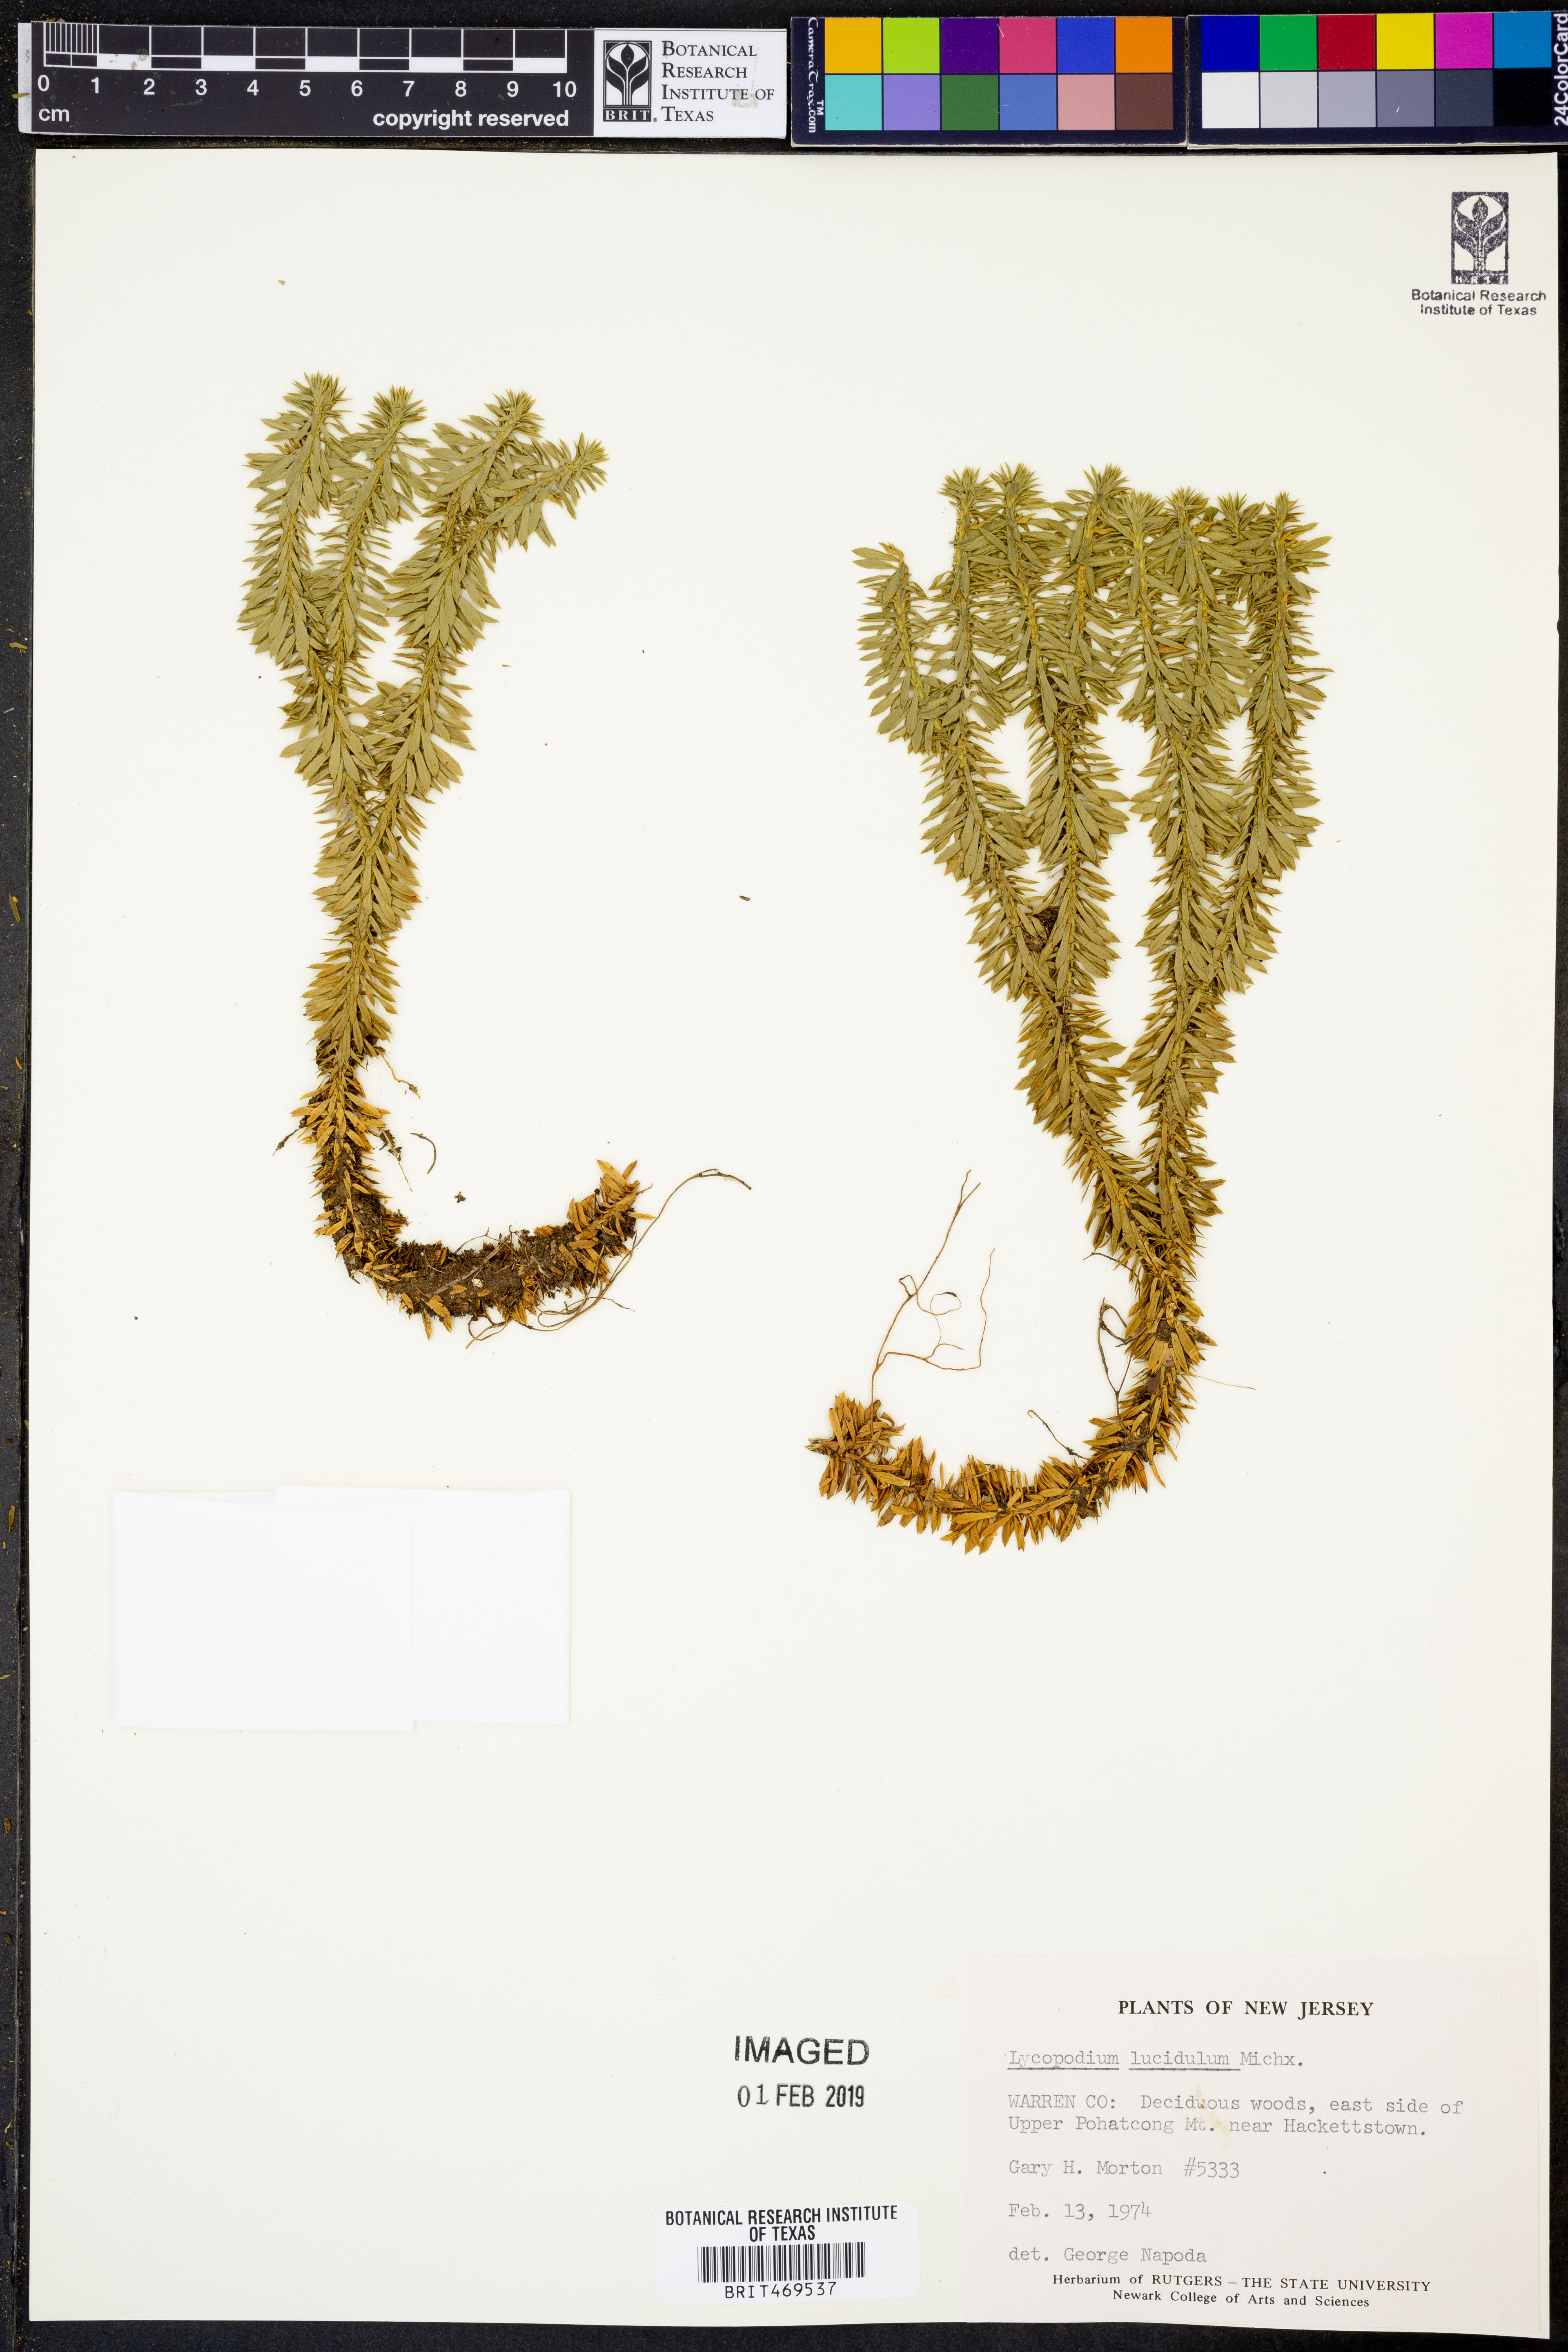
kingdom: Plantae
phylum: Tracheophyta
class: Lycopodiopsida
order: Lycopodiales
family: Lycopodiaceae
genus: Huperzia
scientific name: Huperzia lucidula
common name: Shining clubmoss
